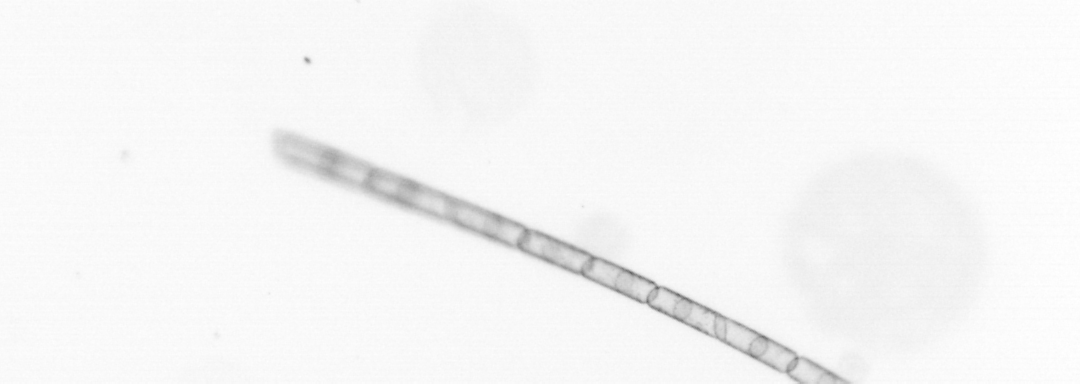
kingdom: Chromista
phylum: Ochrophyta
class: Bacillariophyceae
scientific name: Bacillariophyceae
